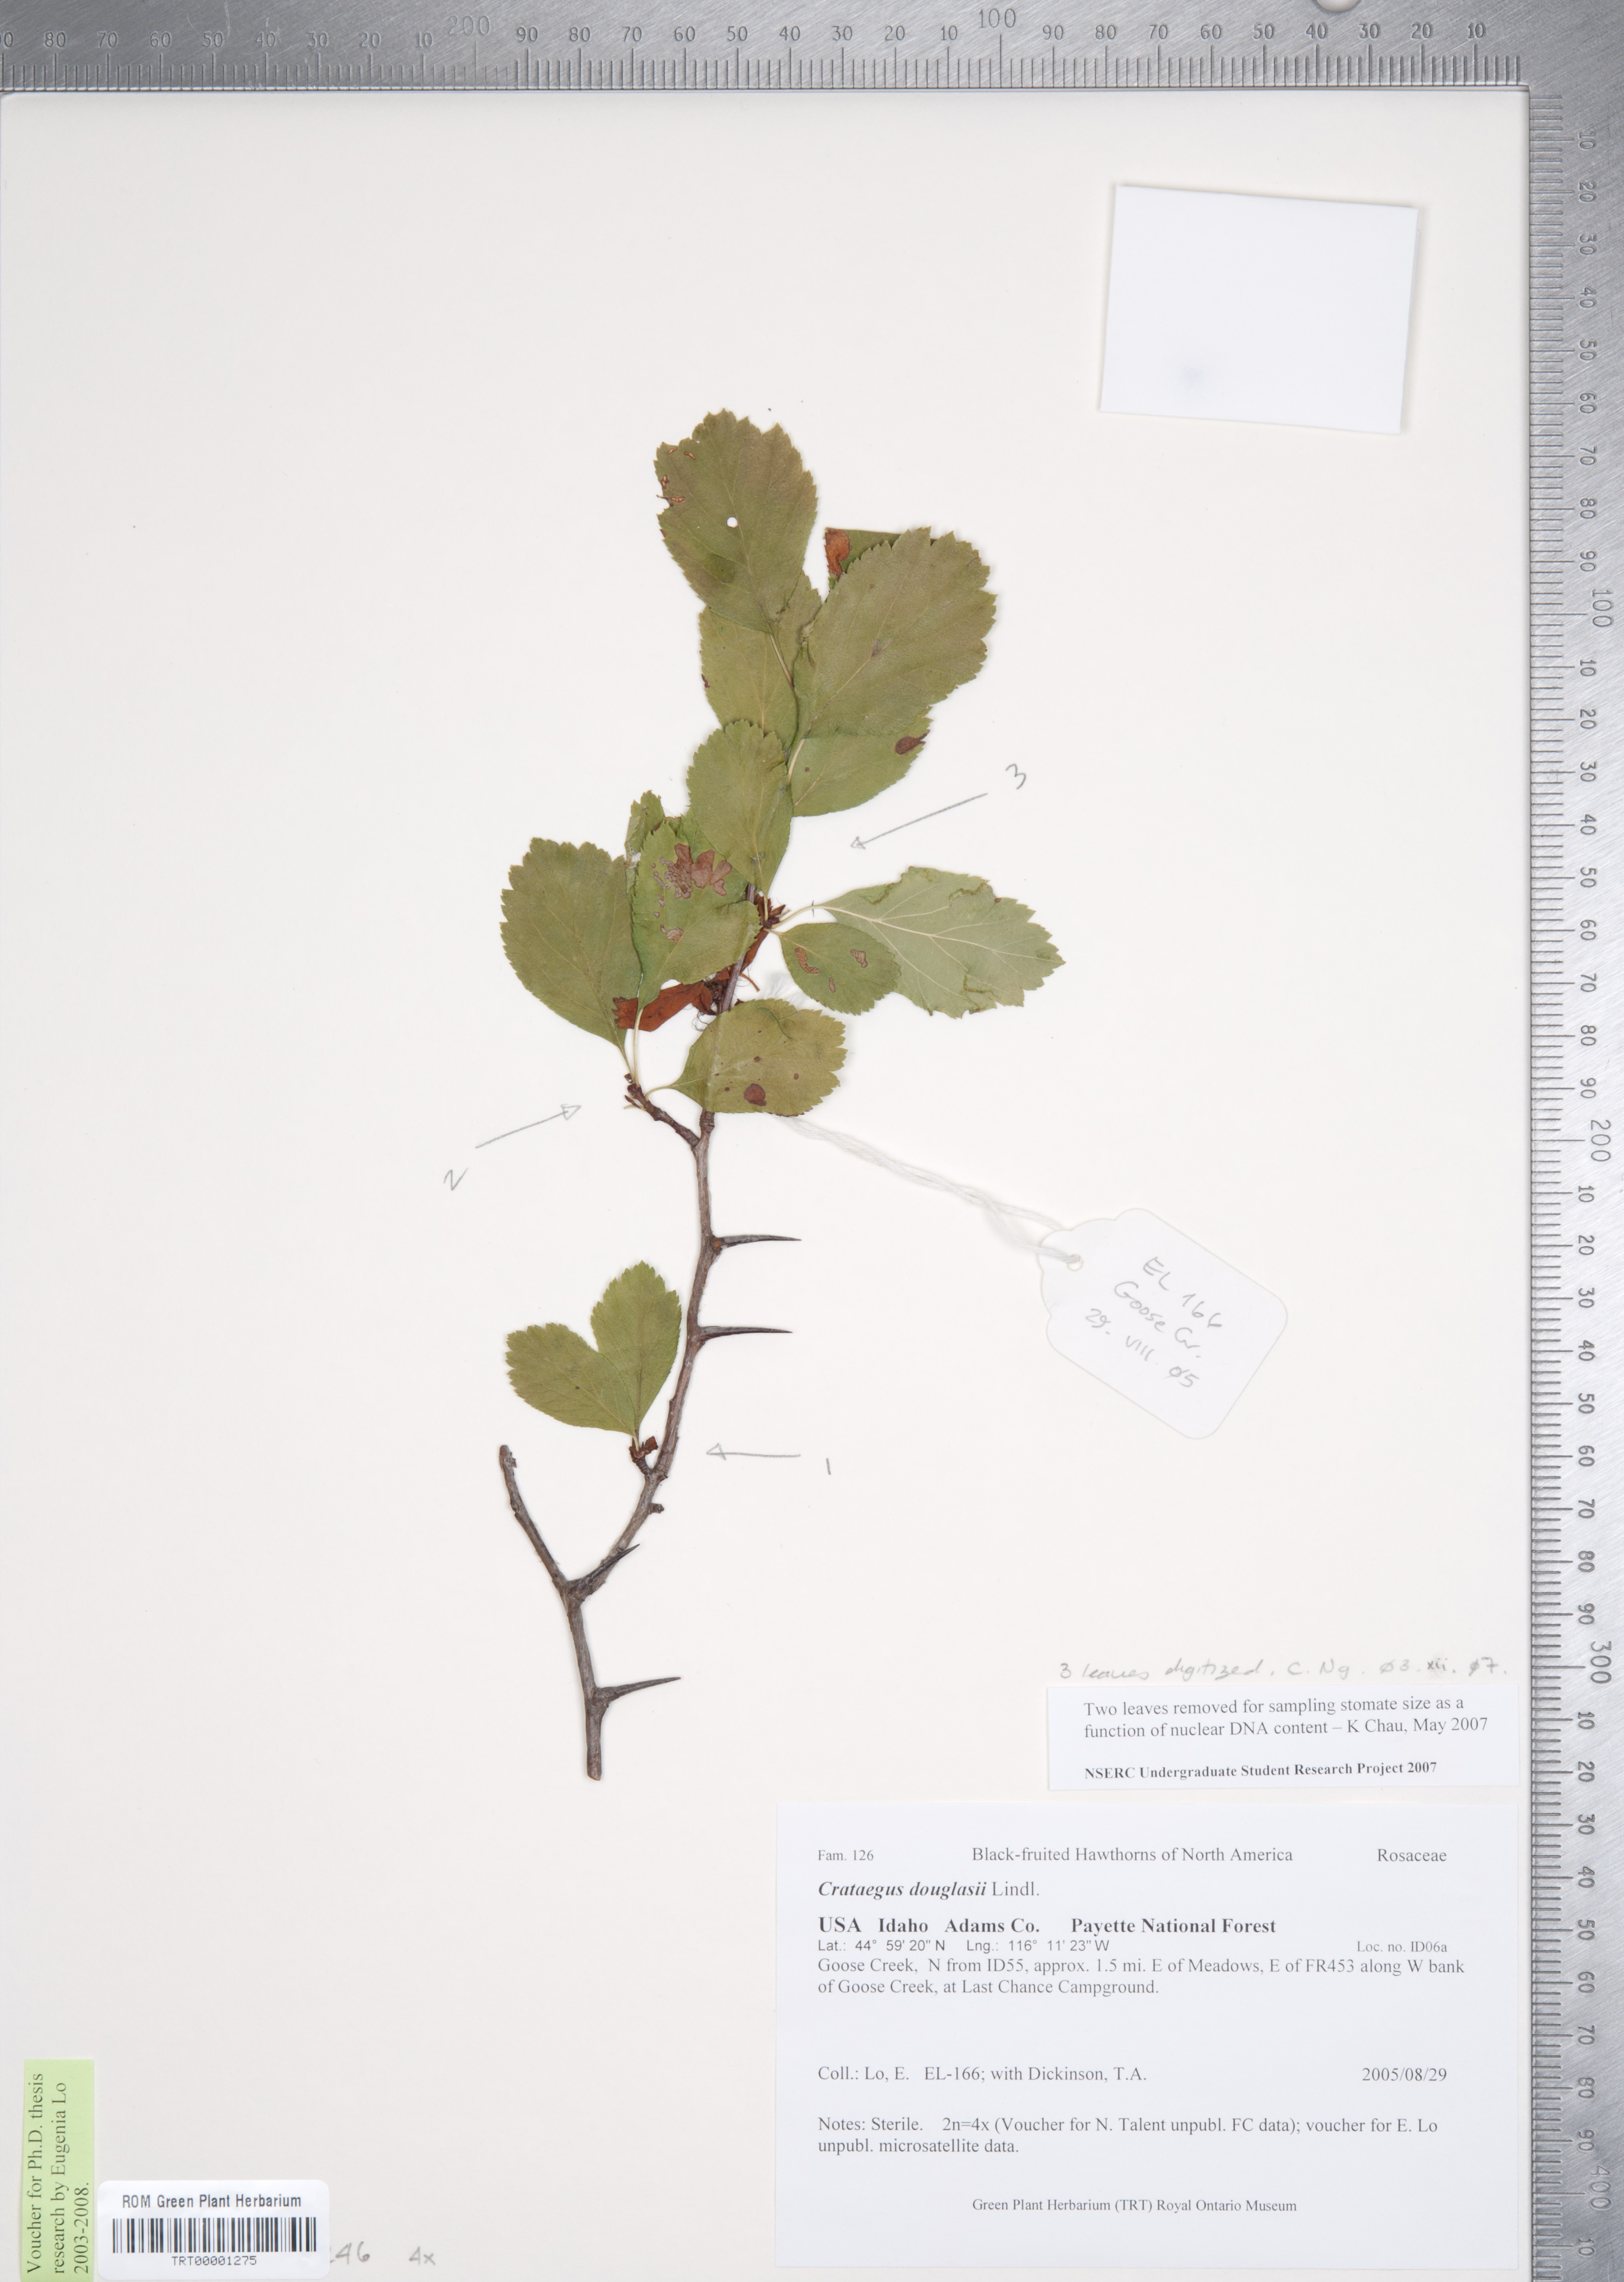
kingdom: Plantae
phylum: Tracheophyta
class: Magnoliopsida
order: Rosales
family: Rosaceae
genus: Crataegus
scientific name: Crataegus douglasii
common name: Black hawthorn
